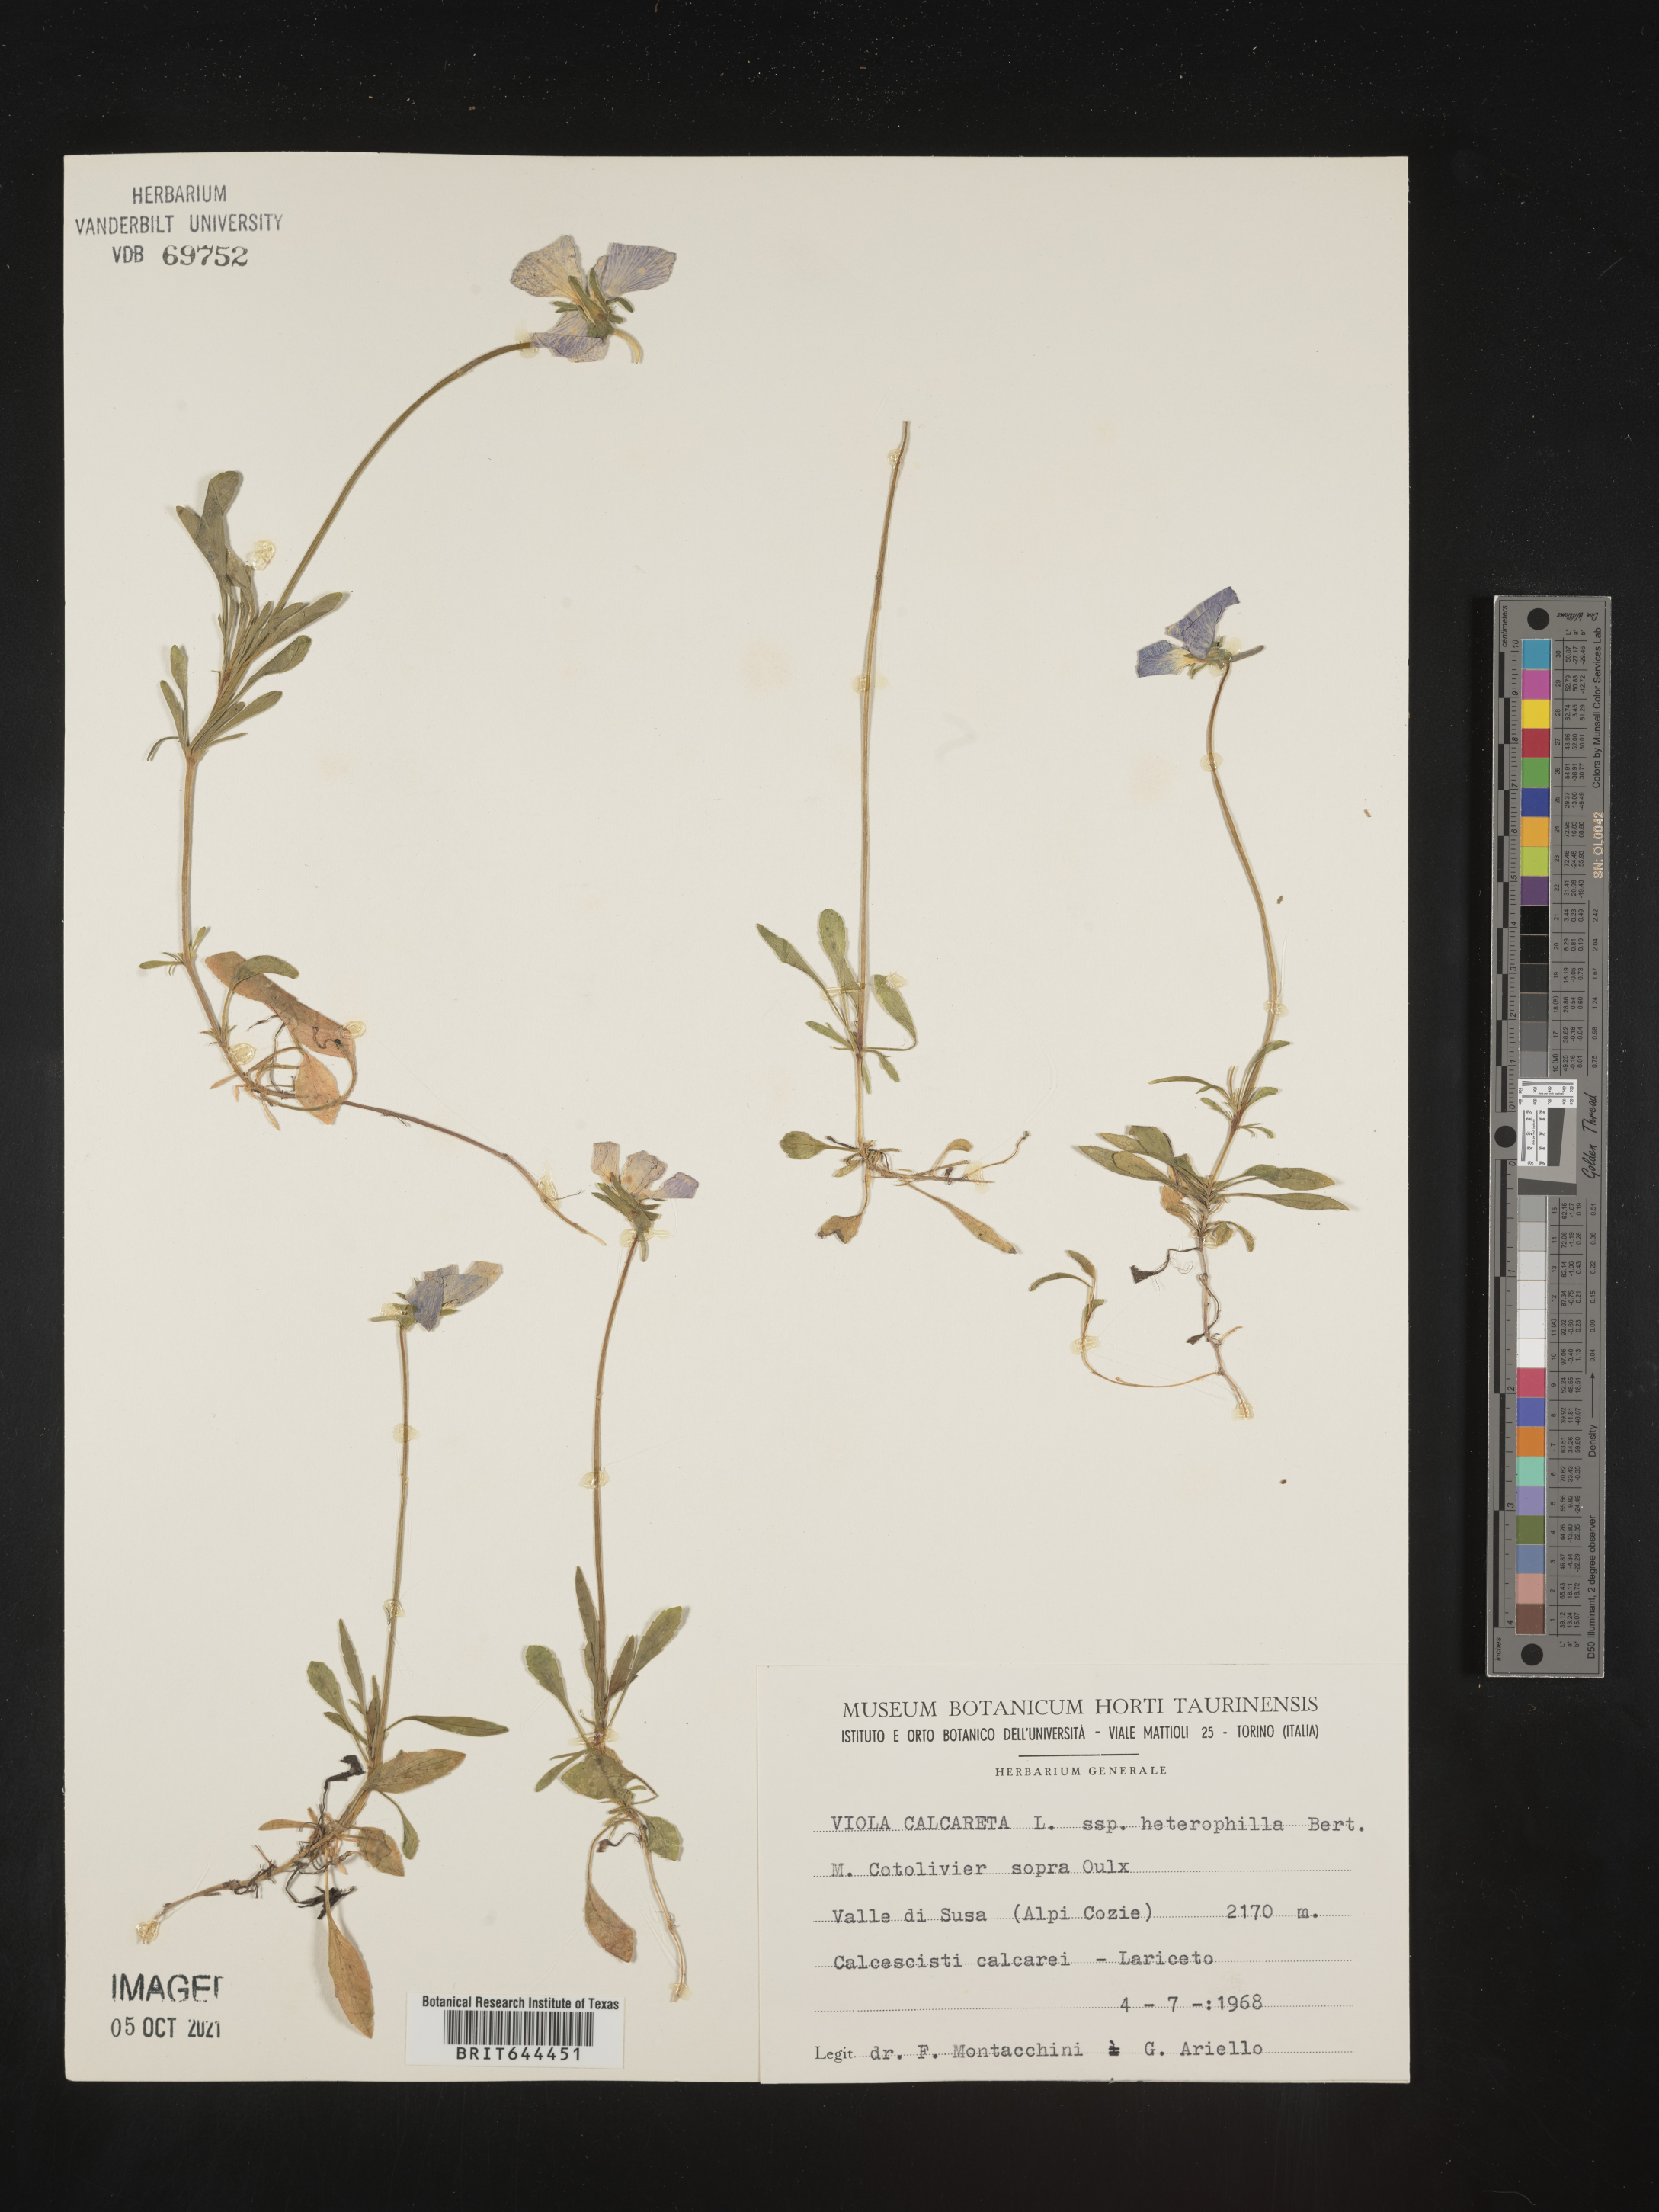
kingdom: Plantae
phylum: Tracheophyta
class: Magnoliopsida
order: Malpighiales
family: Violaceae
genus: Viola
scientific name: Viola
